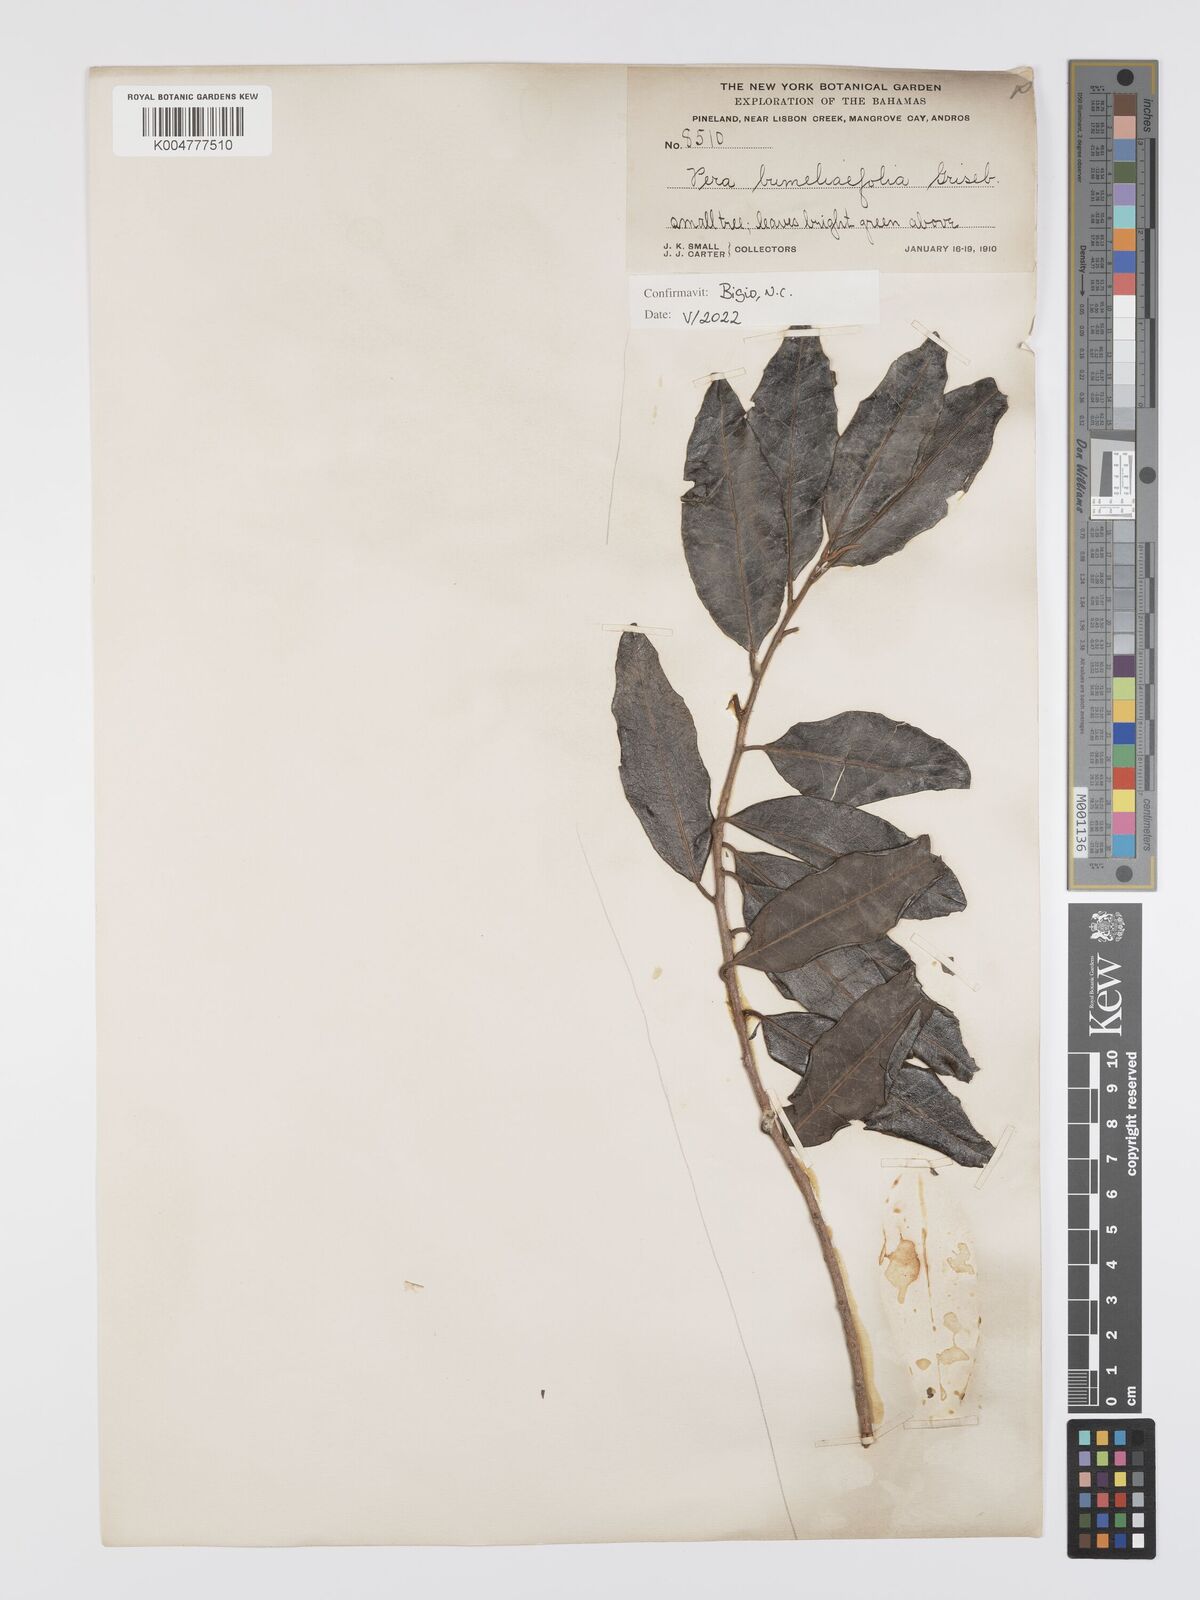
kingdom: Plantae
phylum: Tracheophyta
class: Magnoliopsida
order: Malpighiales
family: Peraceae
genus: Pera
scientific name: Pera
